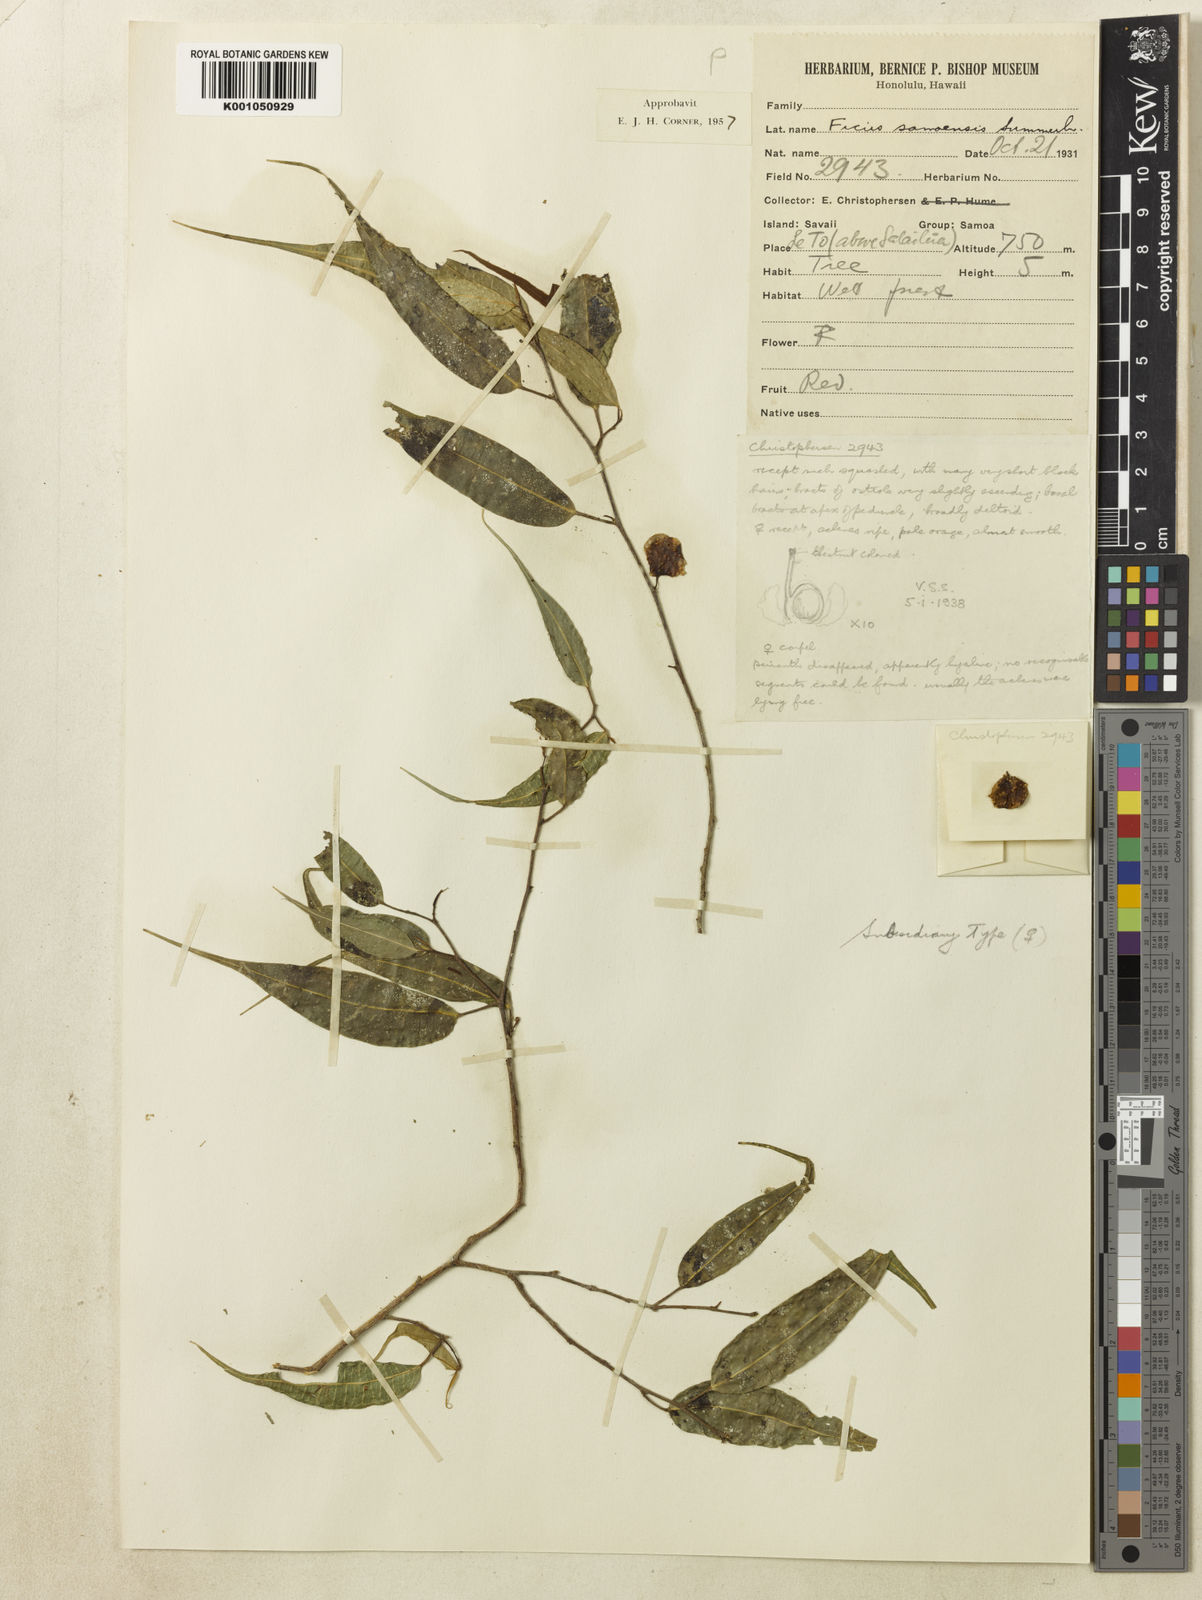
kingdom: Plantae
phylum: Tracheophyta
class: Magnoliopsida
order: Rosales
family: Moraceae
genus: Ficus
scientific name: Ficus samoensis
